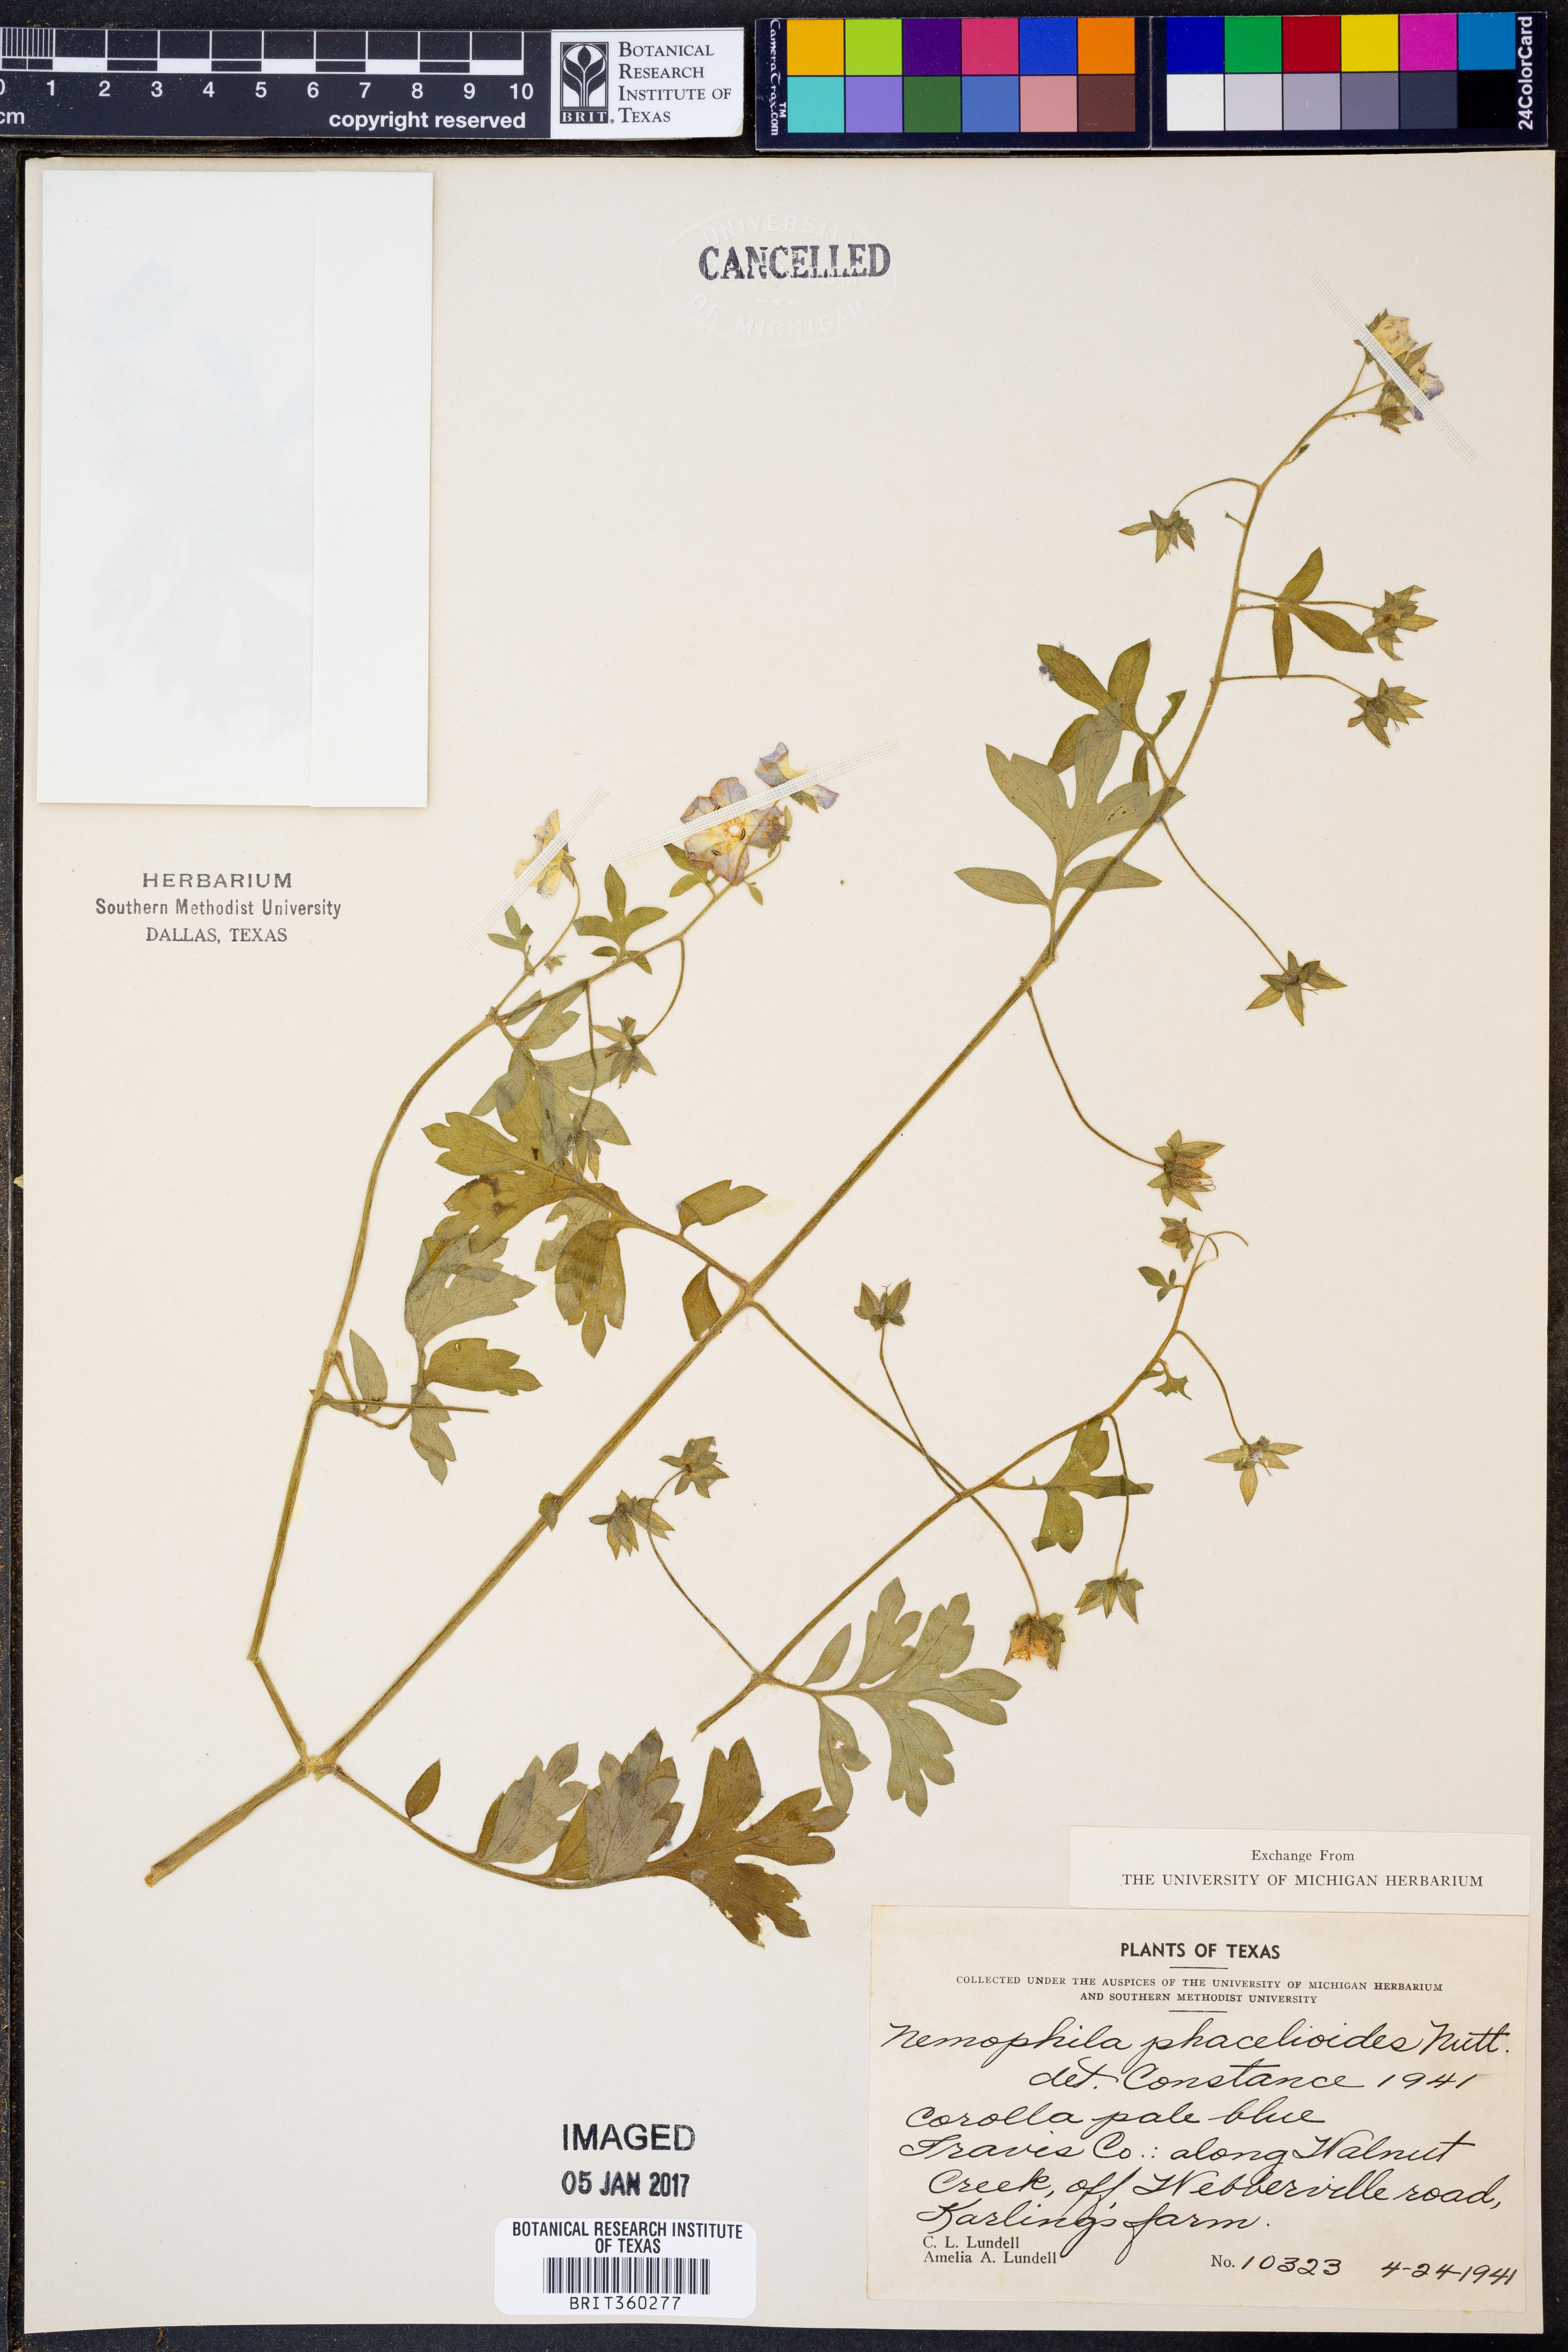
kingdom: Plantae
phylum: Tracheophyta
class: Magnoliopsida
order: Boraginales
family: Hydrophyllaceae
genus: Nemophila
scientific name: Nemophila phacelioides
